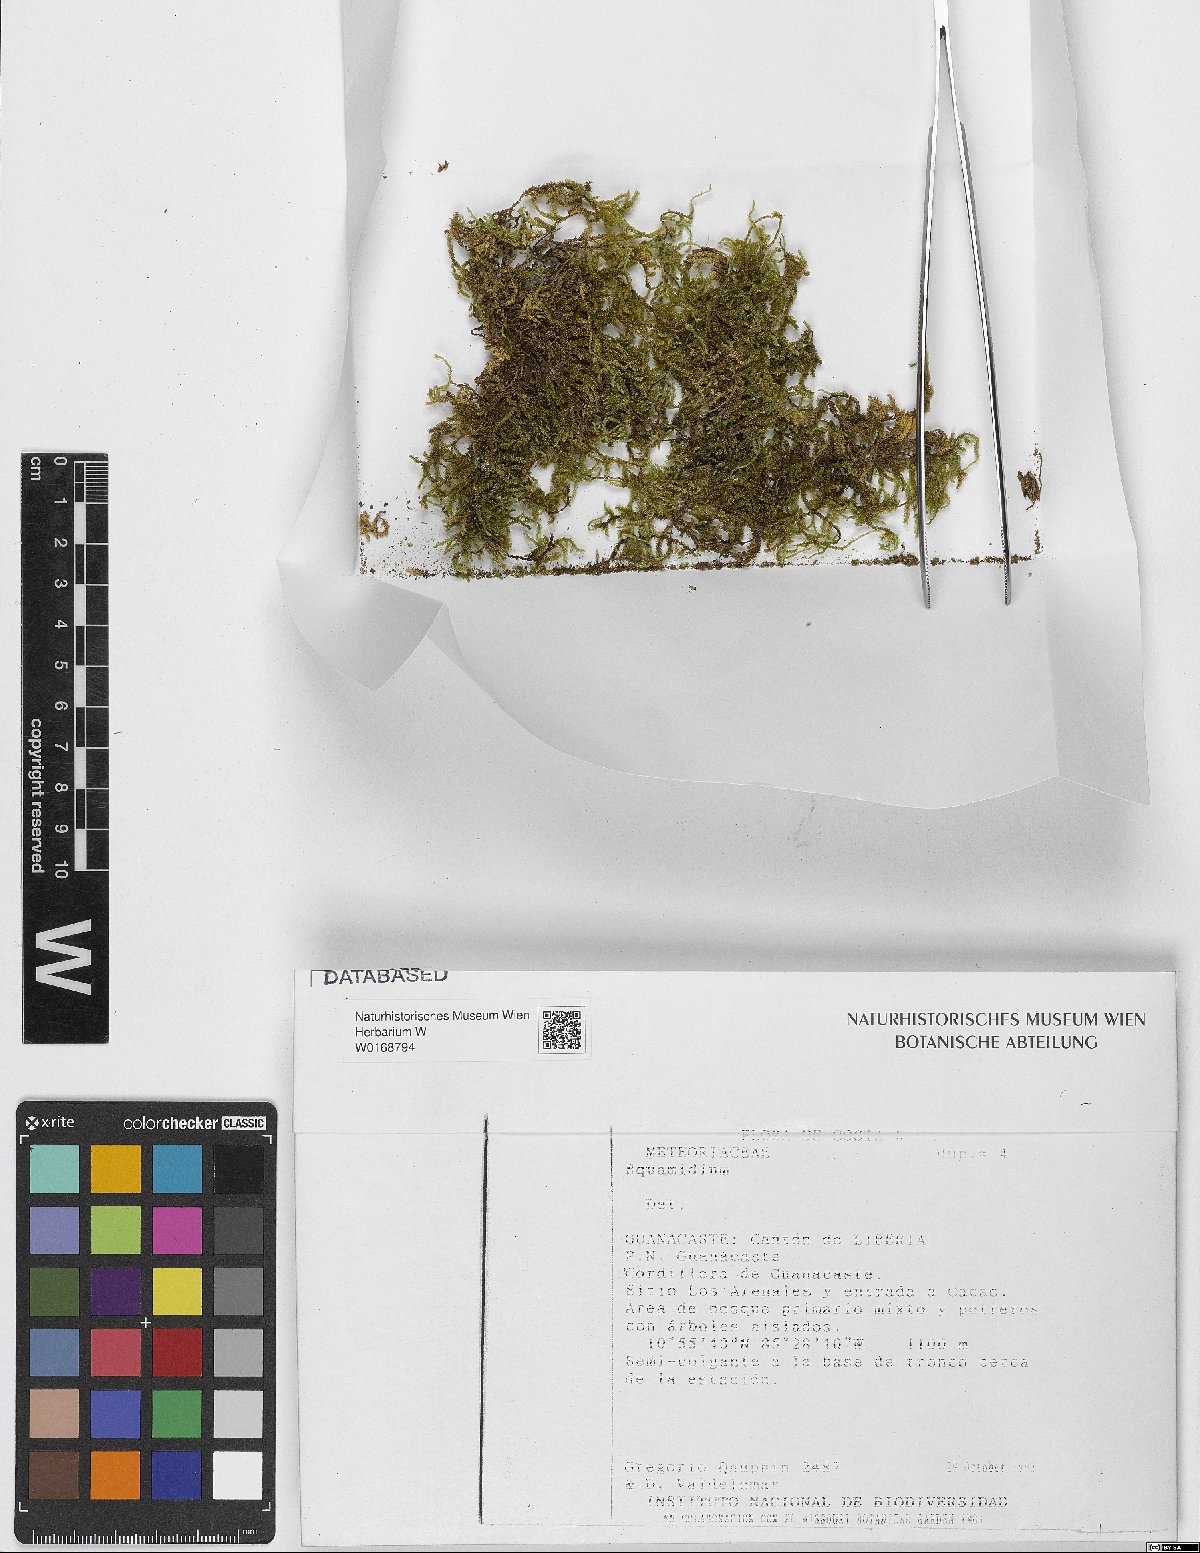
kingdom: Plantae
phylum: Bryophyta
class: Bryopsida
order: Hypnales
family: Brachytheciaceae
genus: Squamidium
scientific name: Squamidium
